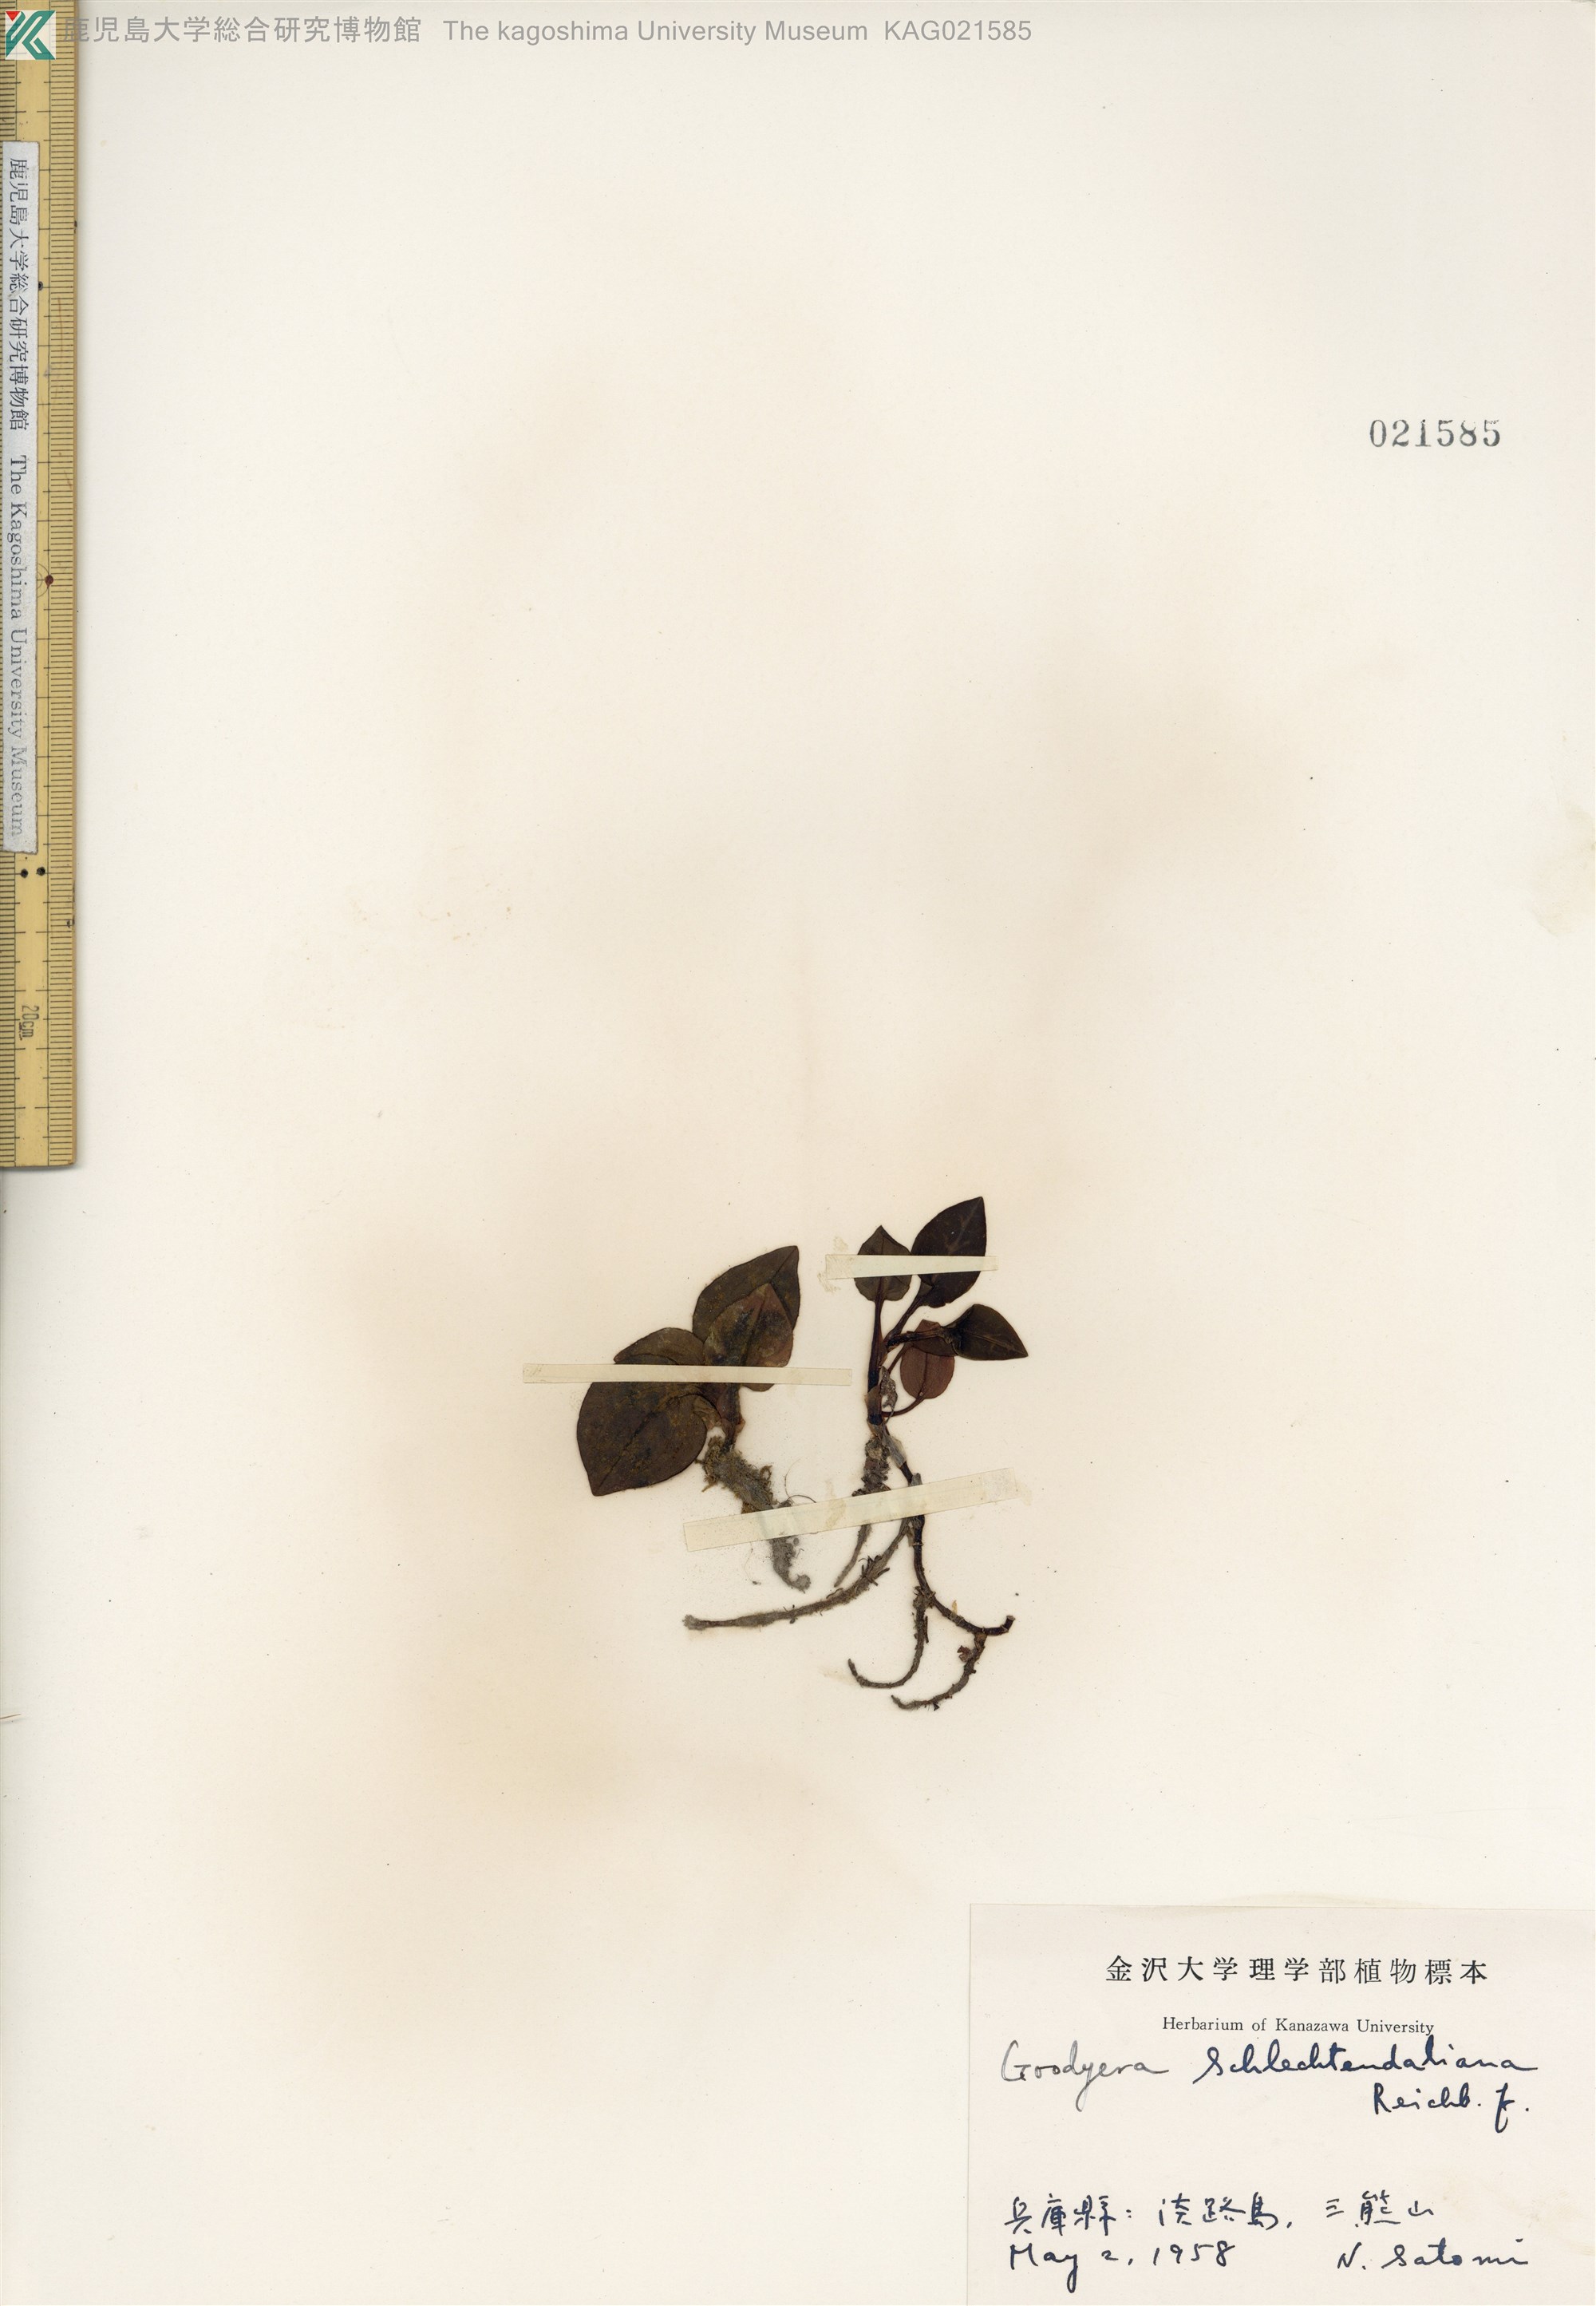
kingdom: Plantae
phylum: Tracheophyta
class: Liliopsida
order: Asparagales
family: Orchidaceae
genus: Goodyera
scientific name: Goodyera schlechtendaliana
